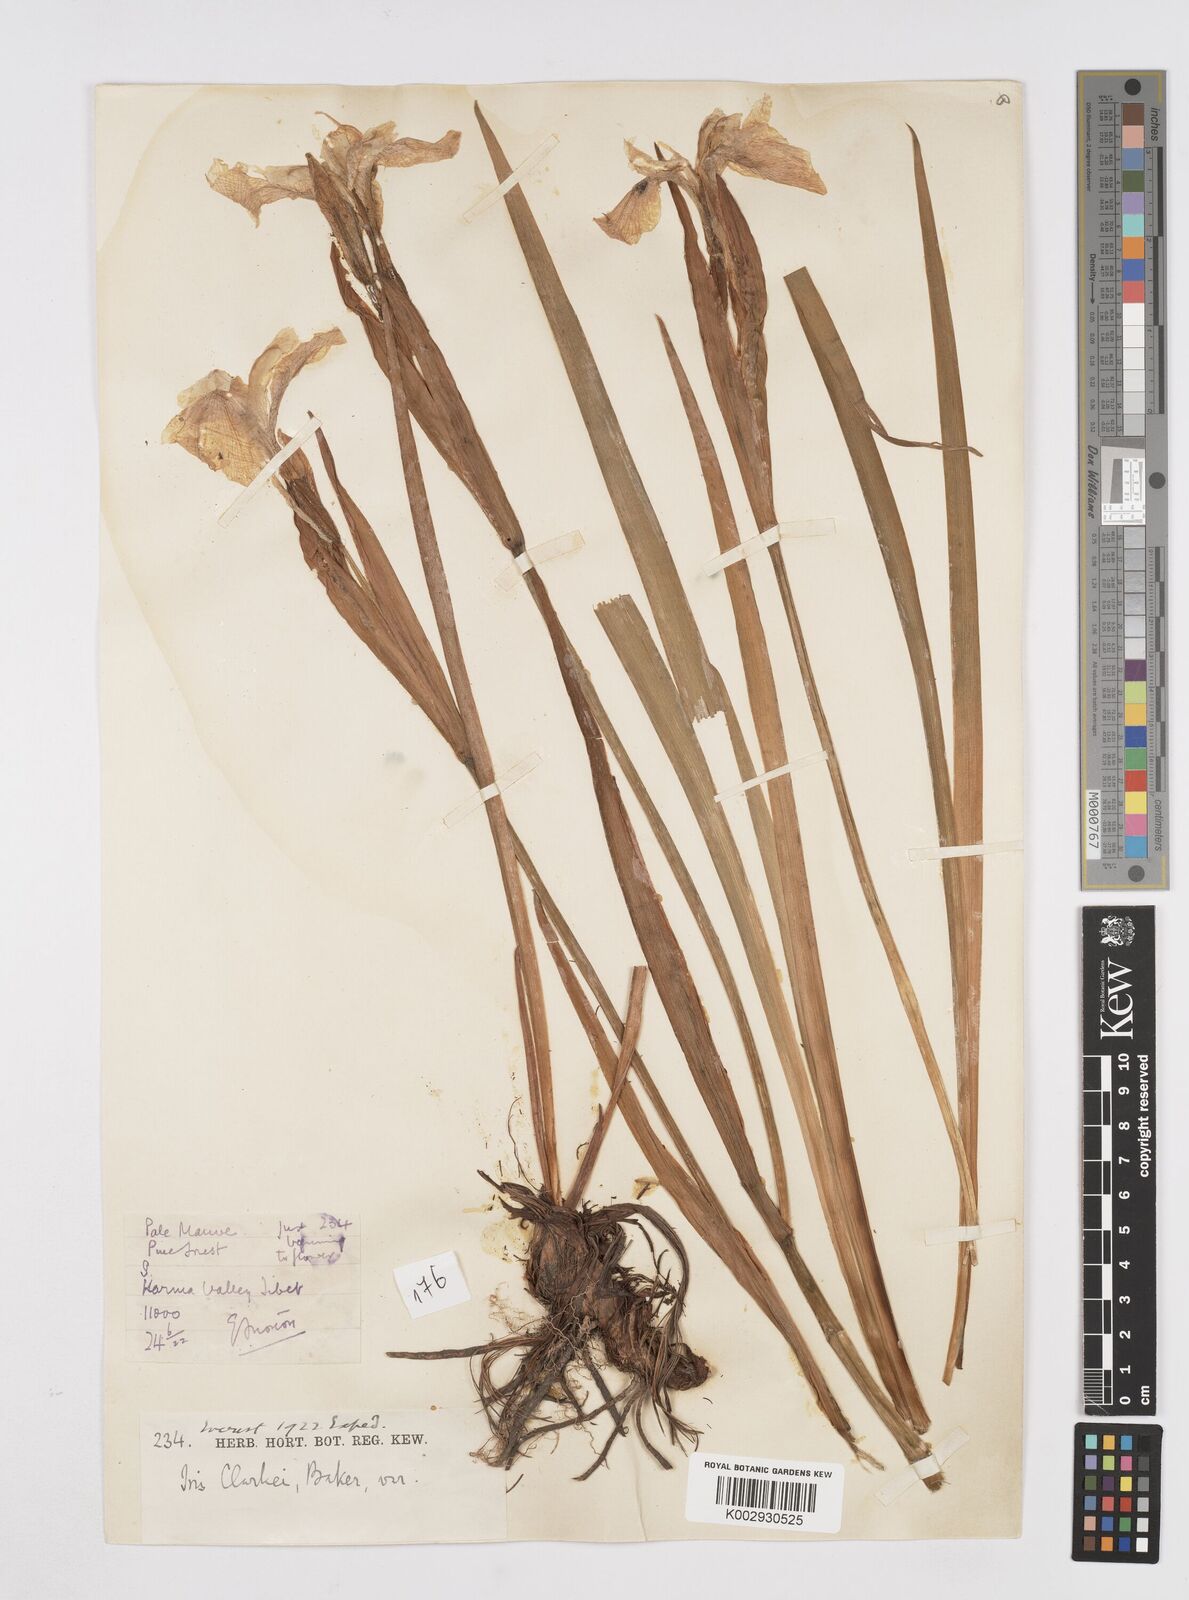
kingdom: Plantae
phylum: Tracheophyta
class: Liliopsida
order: Asparagales
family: Iridaceae
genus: Iris
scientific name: Iris clarkei
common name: Tibet iris
